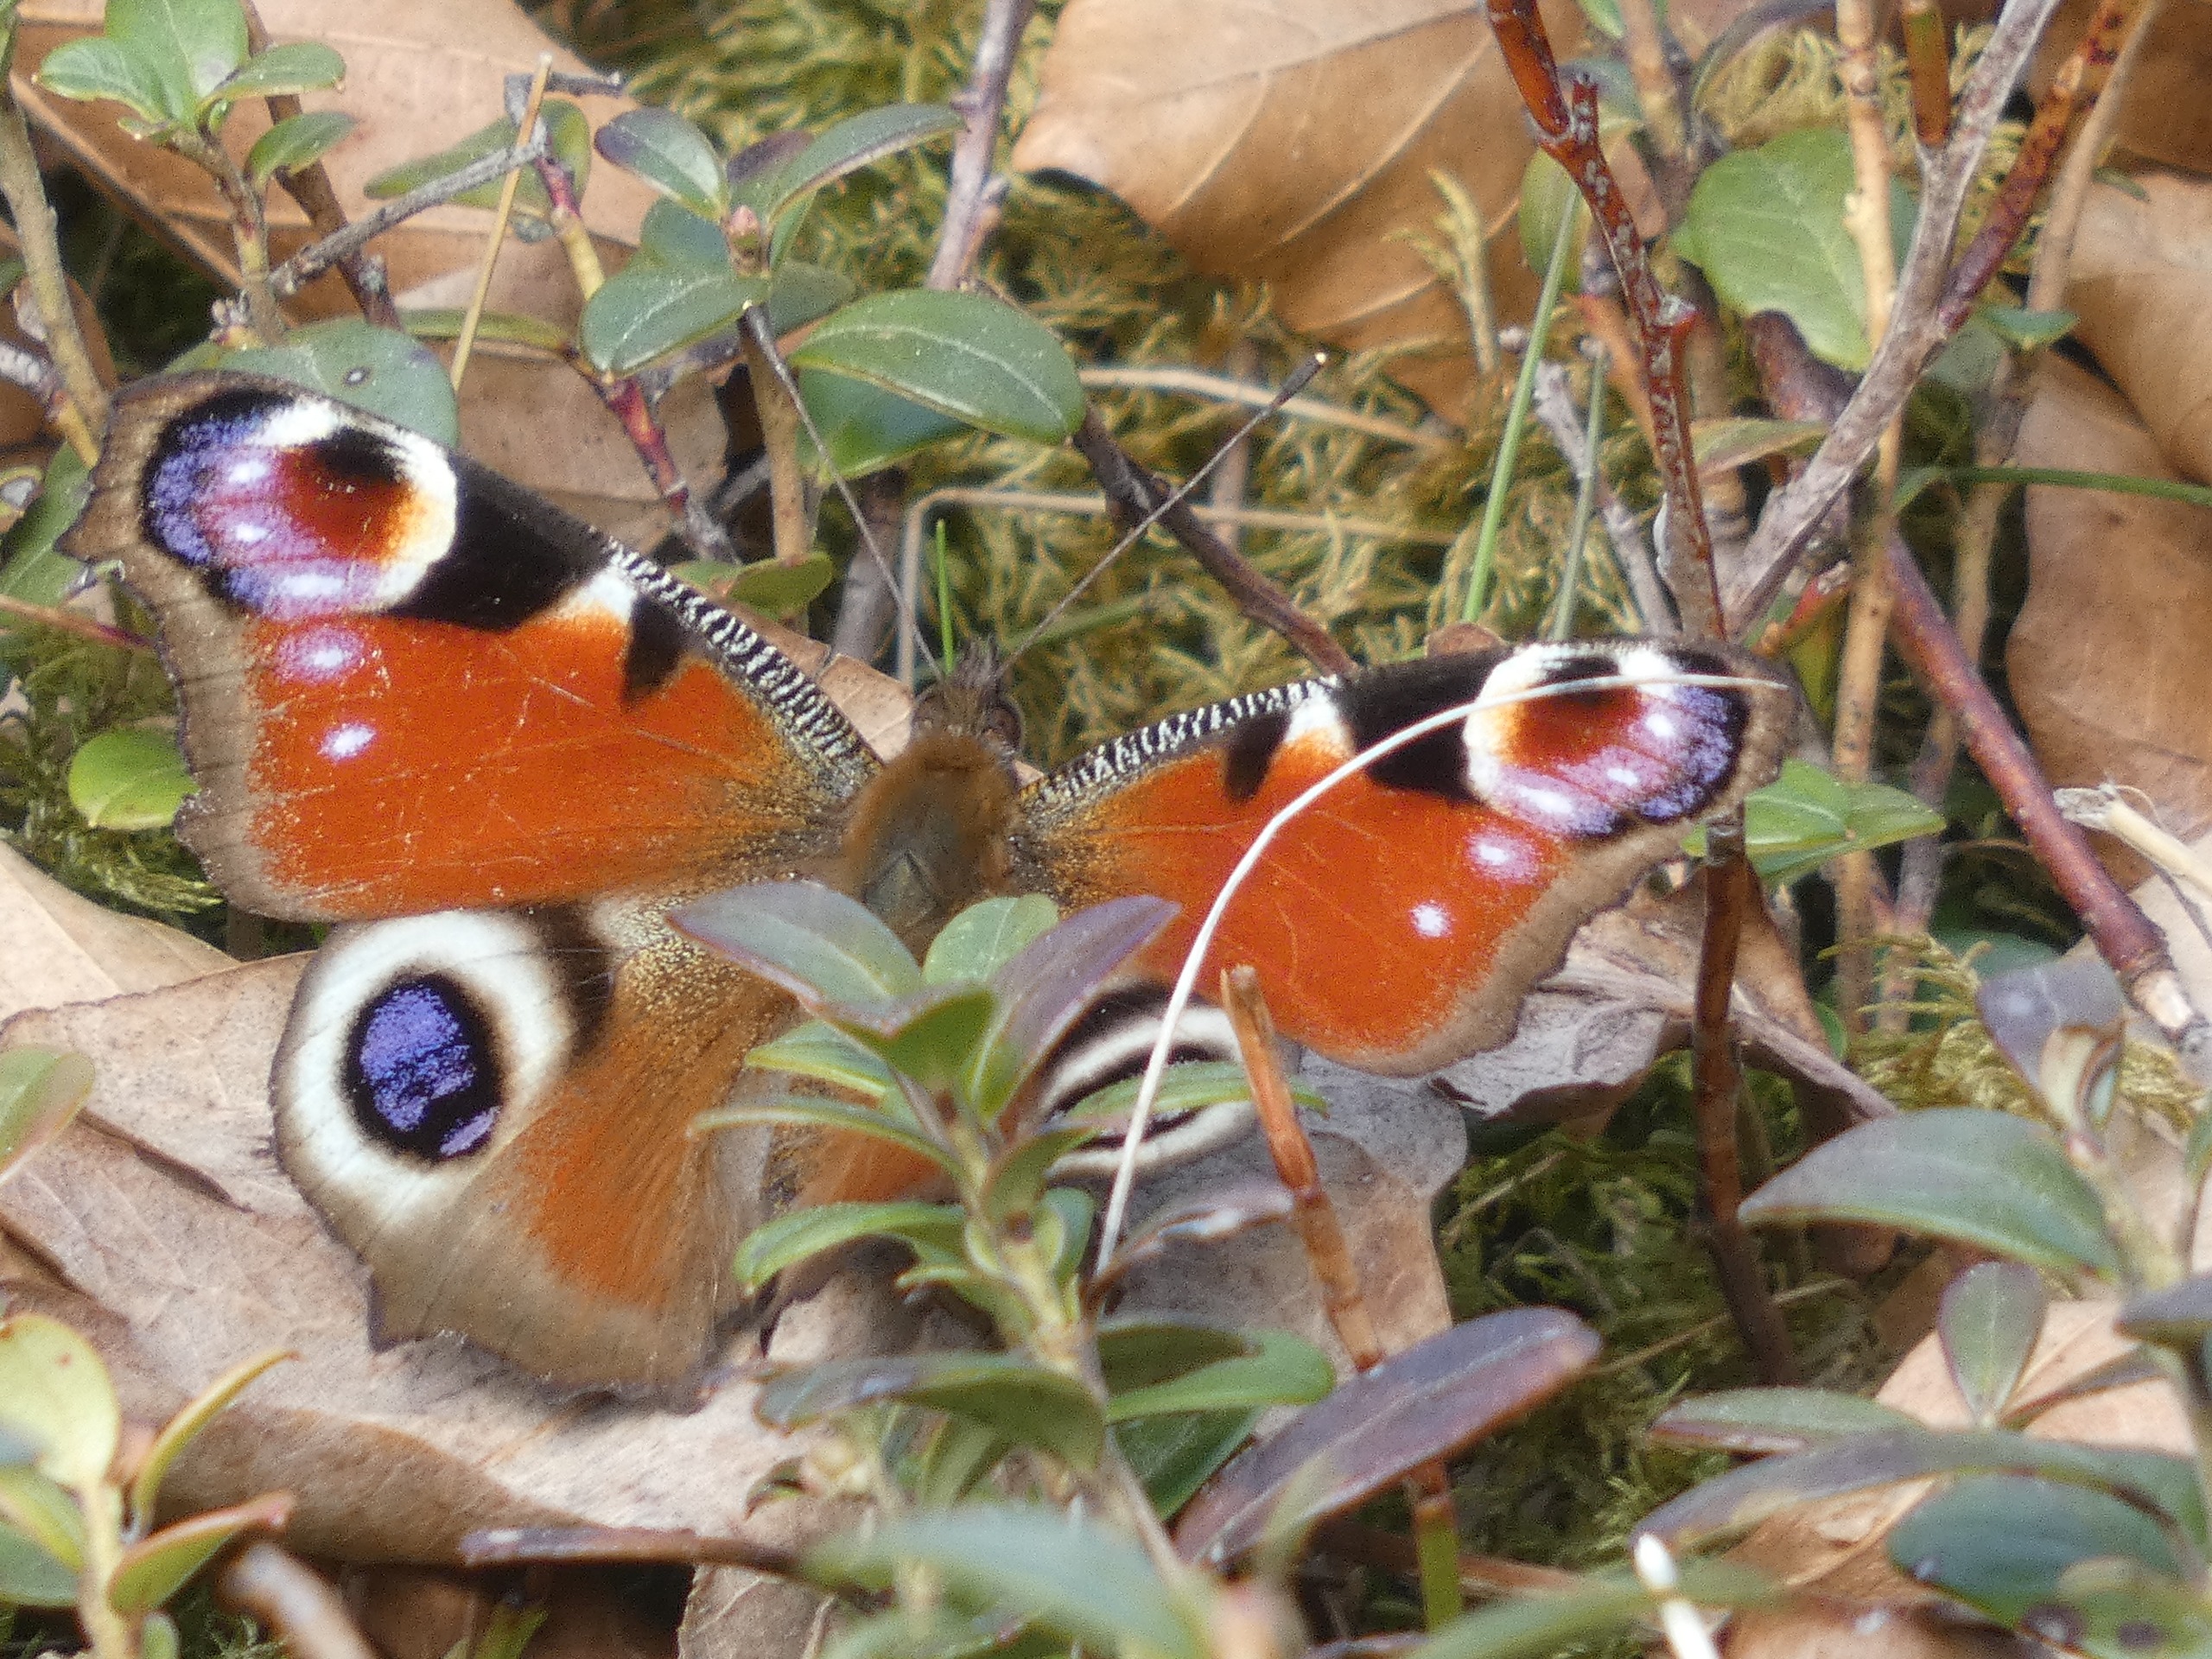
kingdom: Animalia
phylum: Arthropoda
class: Insecta
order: Lepidoptera
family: Nymphalidae
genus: Aglais
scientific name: Aglais io
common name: Dagpåfugleøje
